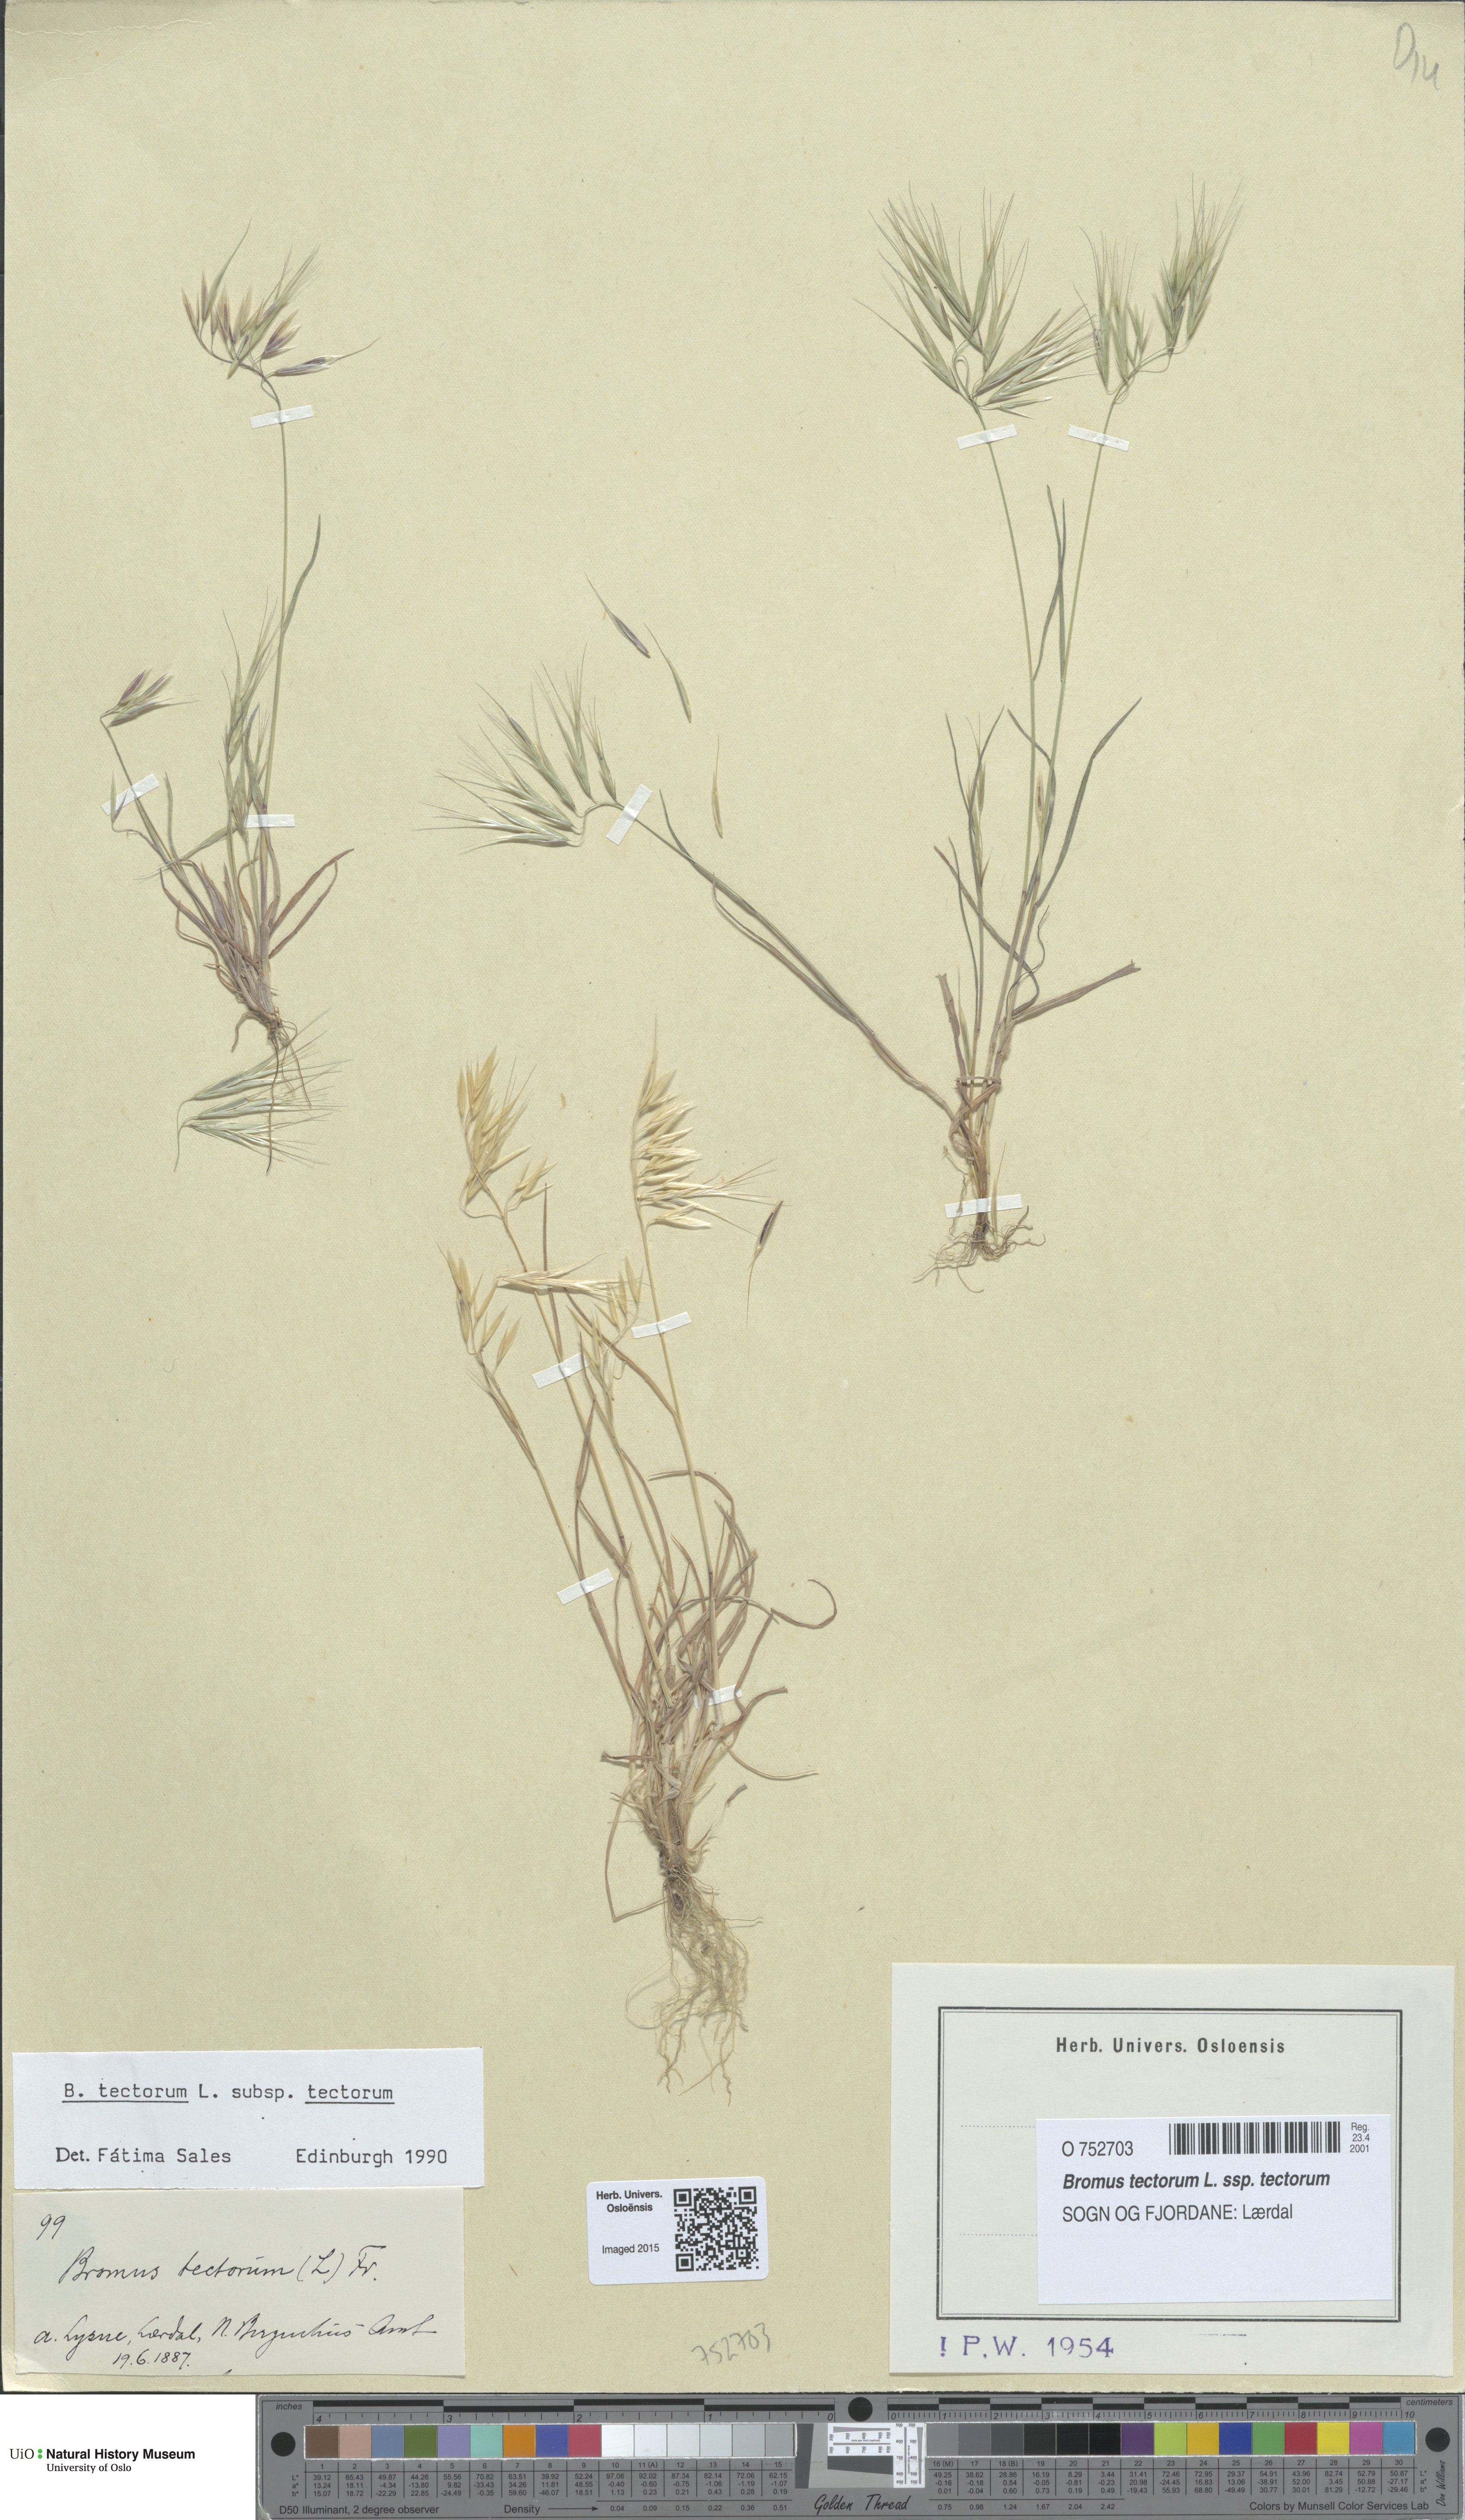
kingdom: Plantae
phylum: Tracheophyta
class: Liliopsida
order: Poales
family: Poaceae
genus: Bromus
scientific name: Bromus tectorum
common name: Cheatgrass
